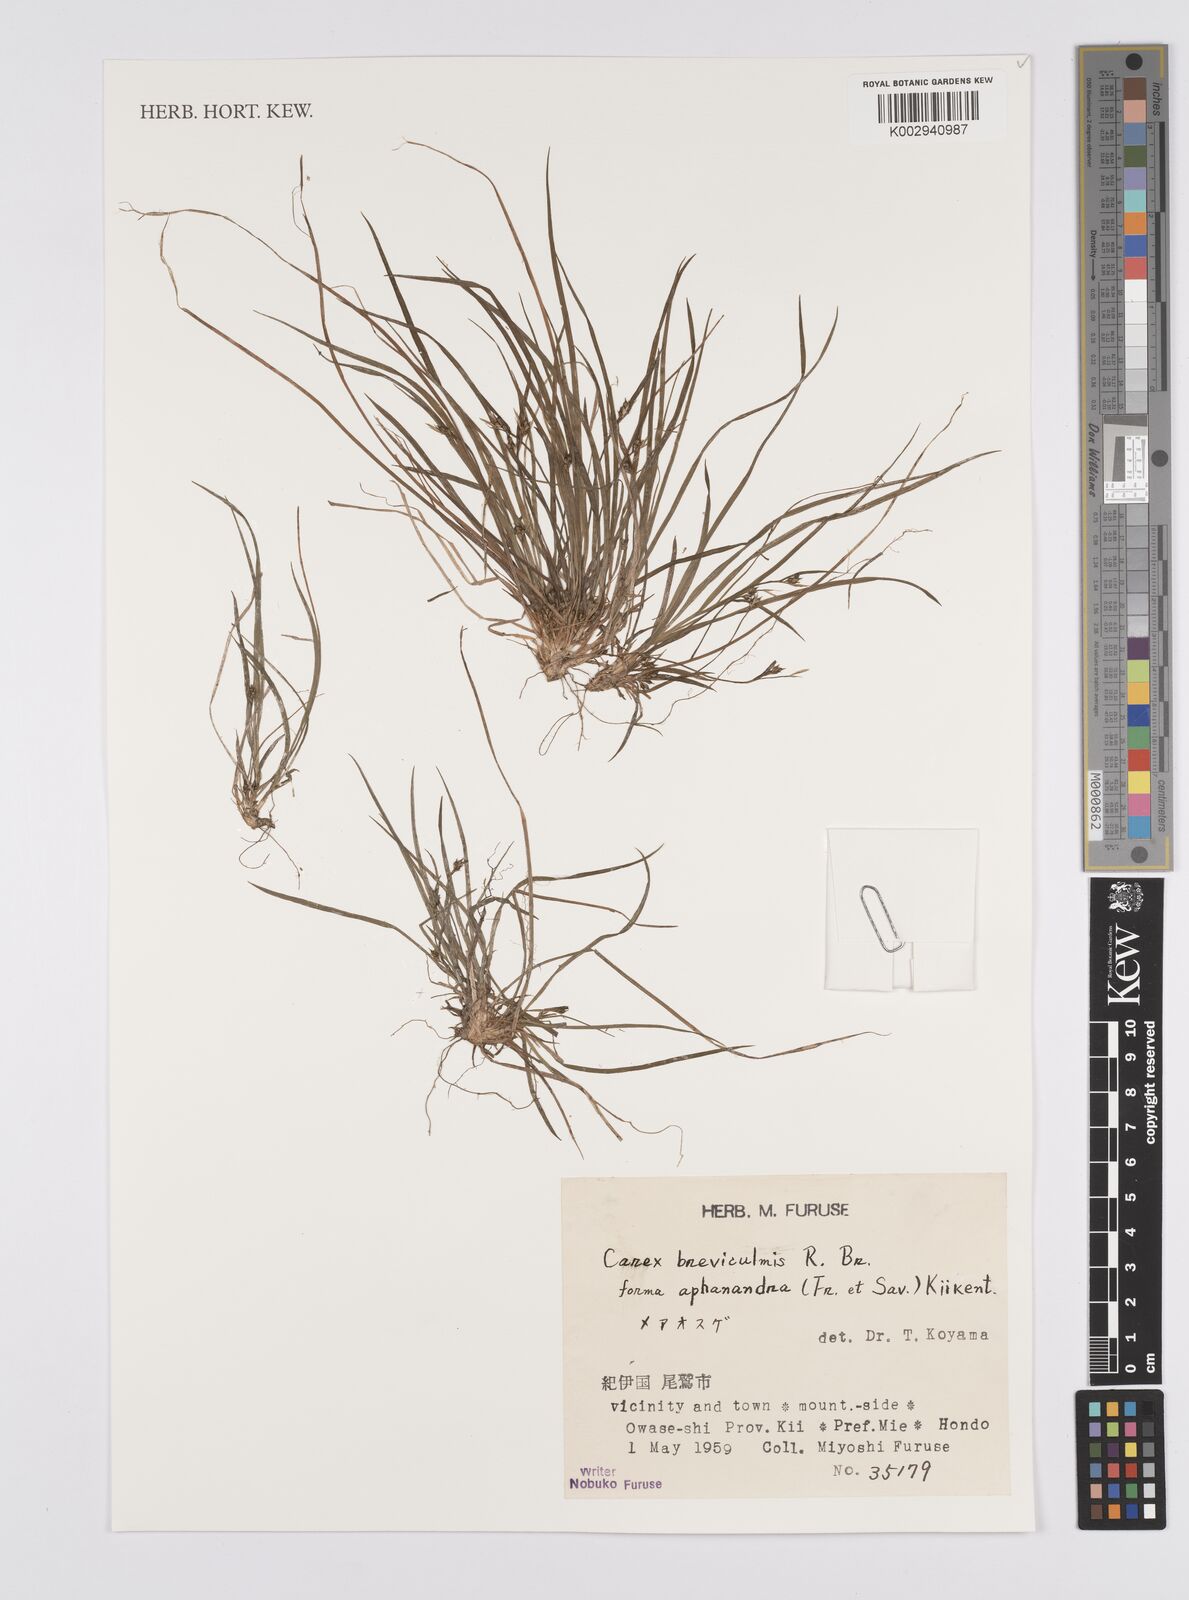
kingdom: Plantae
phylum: Tracheophyta
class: Liliopsida
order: Poales
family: Cyperaceae
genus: Carex
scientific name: Carex breviculmis
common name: Asian shortstem sedge
